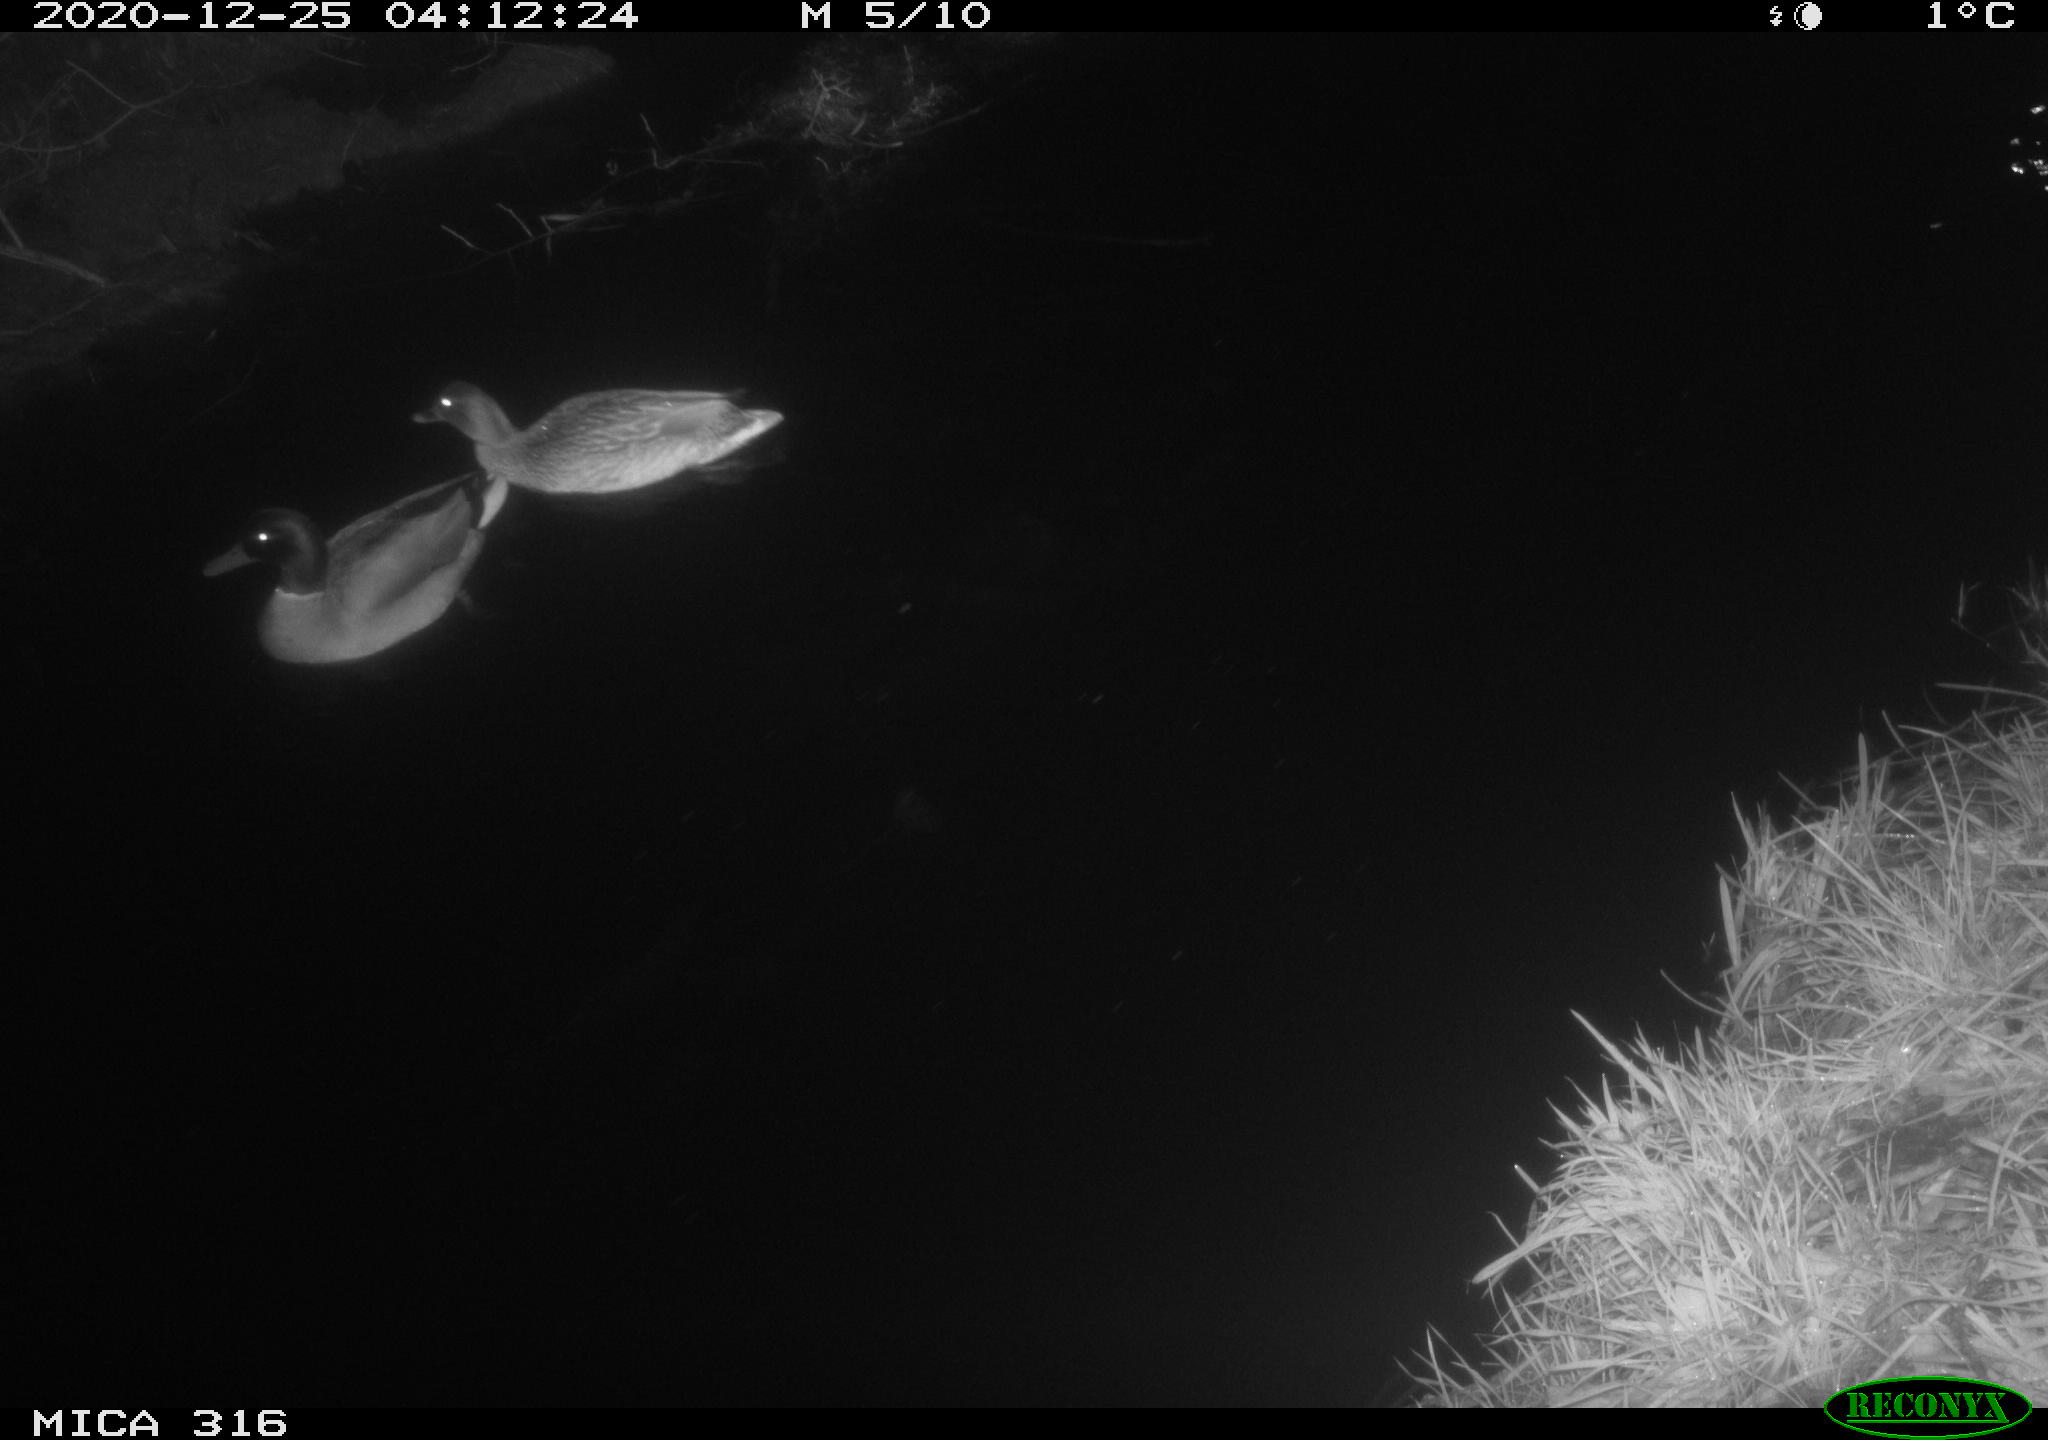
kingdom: Animalia
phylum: Chordata
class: Aves
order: Anseriformes
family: Anatidae
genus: Anas
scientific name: Anas platyrhynchos
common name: Mallard
